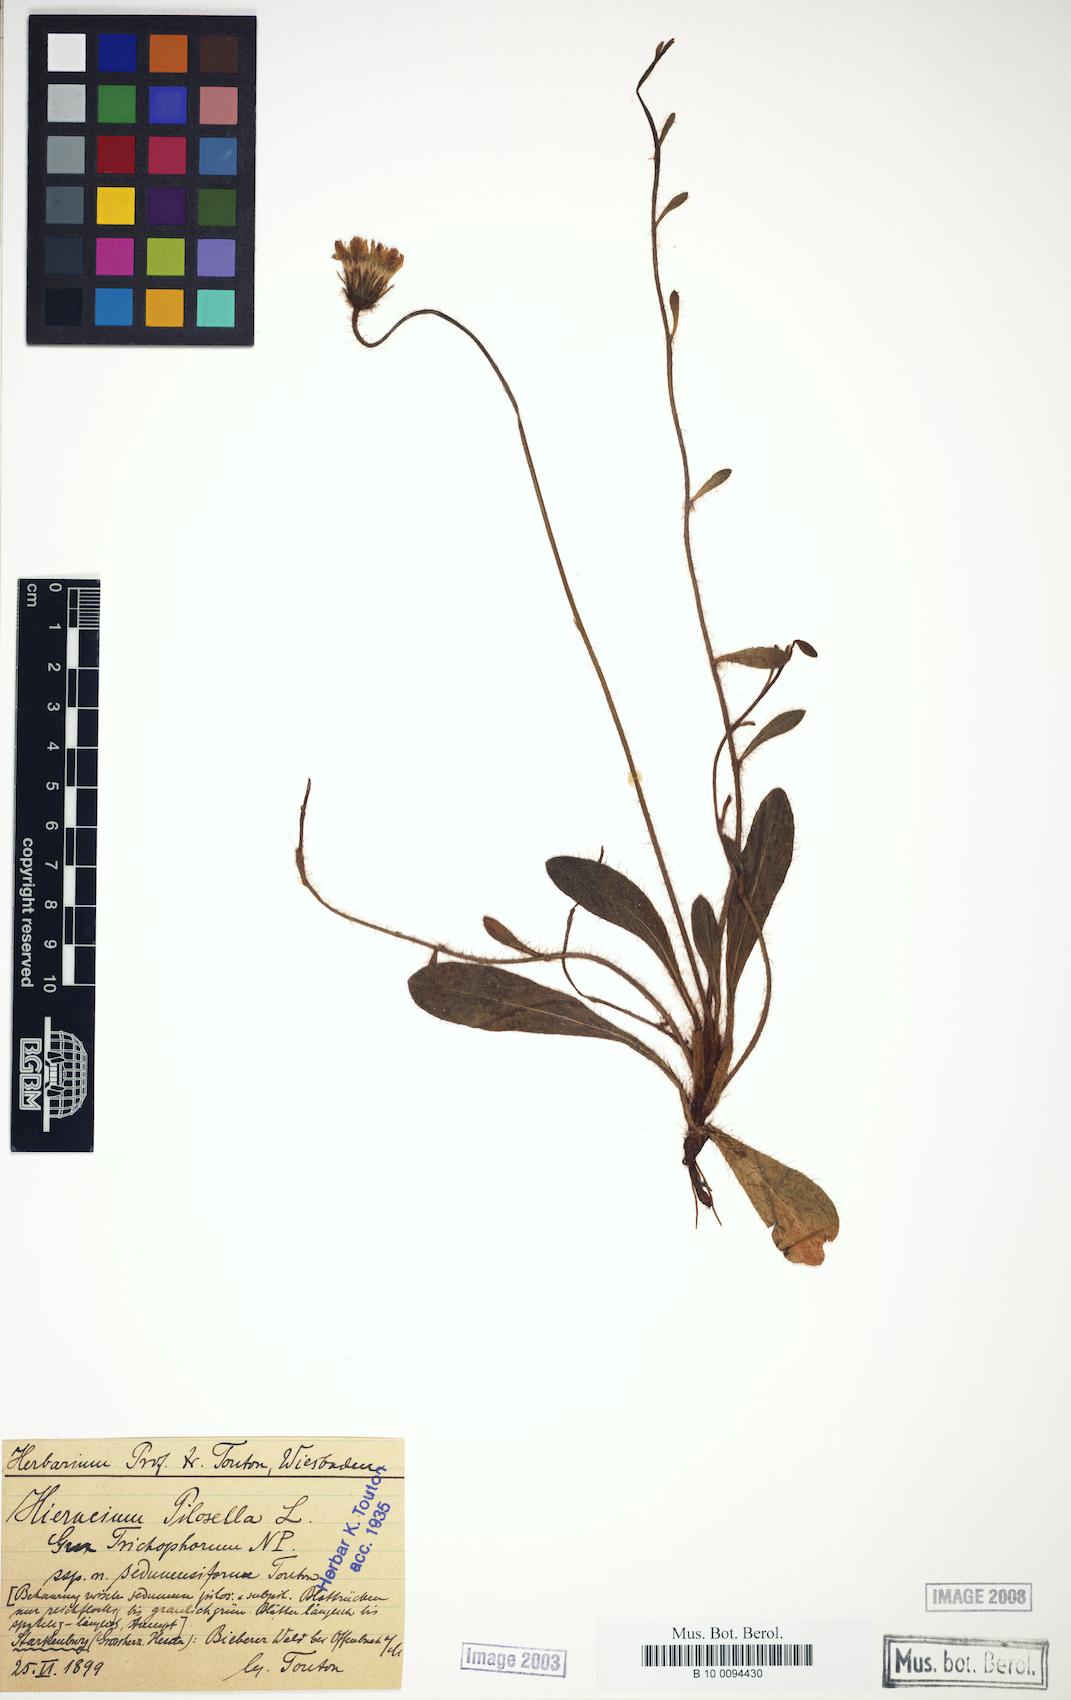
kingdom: Plantae
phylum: Tracheophyta
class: Magnoliopsida
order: Asterales
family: Asteraceae
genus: Pilosella
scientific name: Pilosella officinarum
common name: Mouse-ear hawkweed
